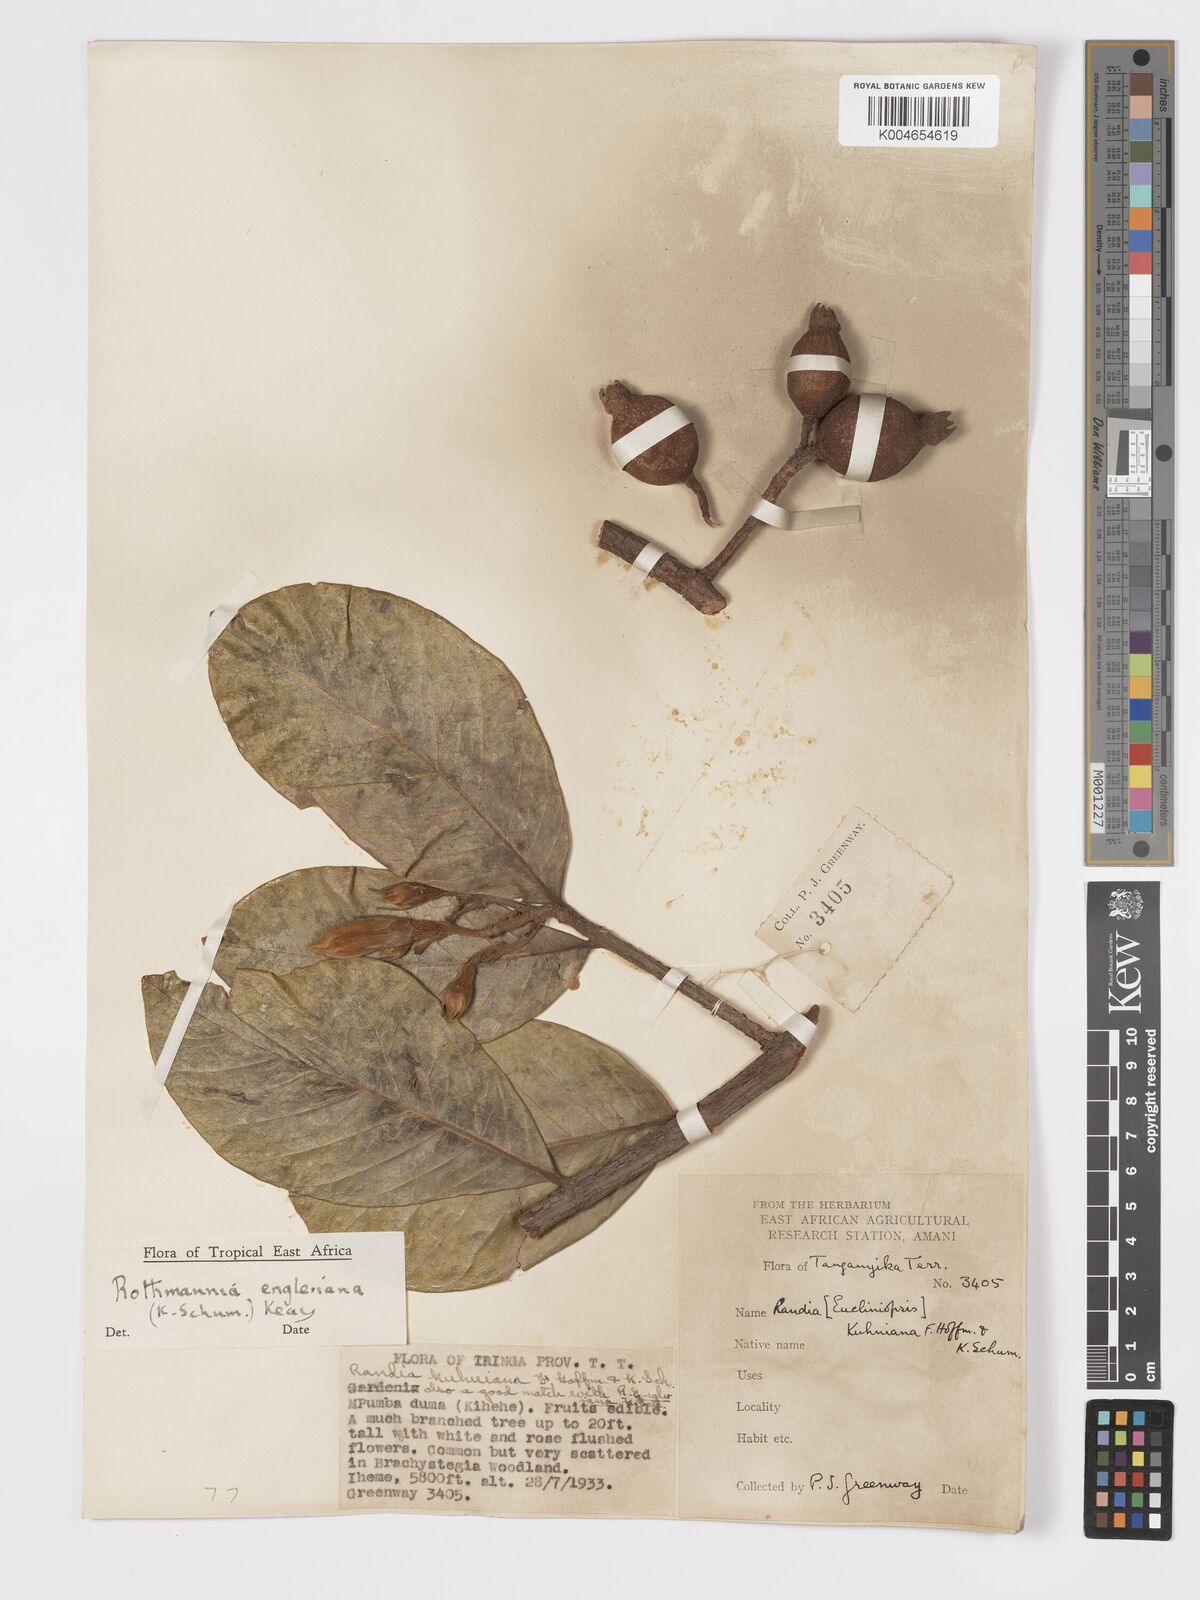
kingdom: Plantae
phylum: Tracheophyta
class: Magnoliopsida
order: Gentianales
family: Rubiaceae
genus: Rothmannia
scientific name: Rothmannia engleriana
